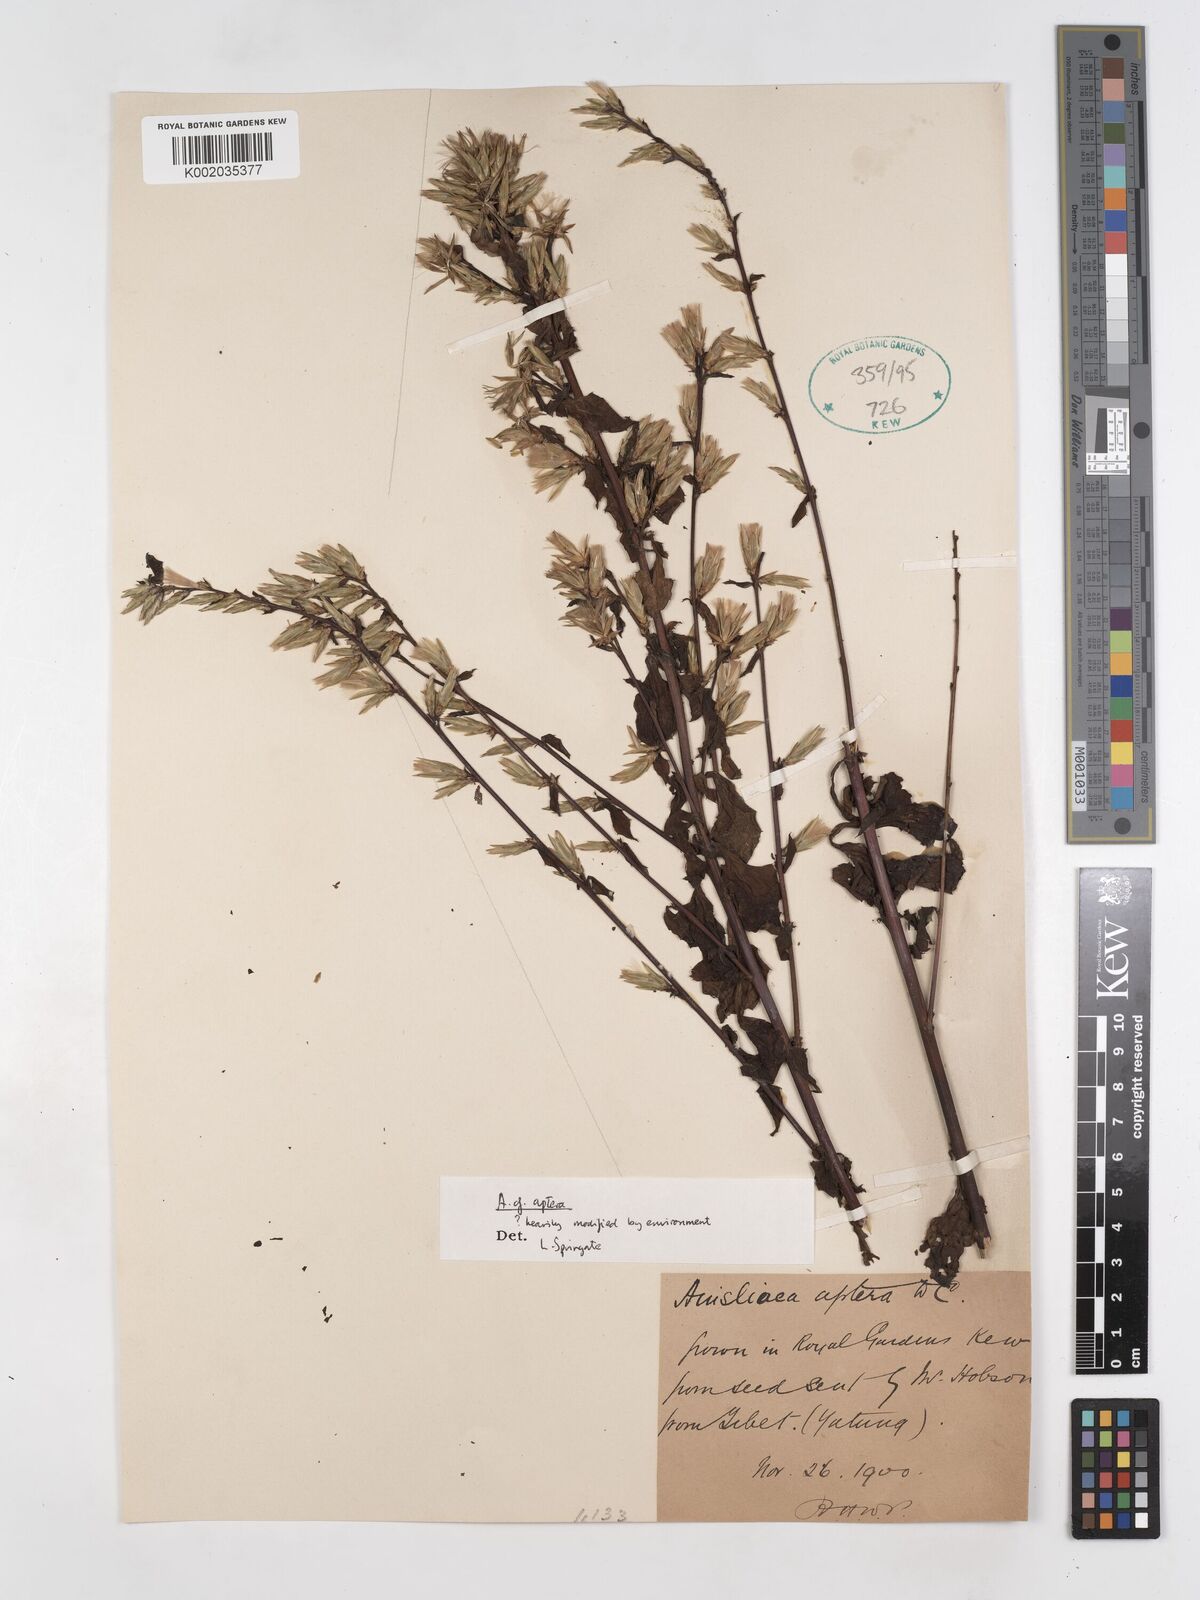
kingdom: Plantae
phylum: Tracheophyta
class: Magnoliopsida
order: Asterales
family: Asteraceae
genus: Ainsliaea
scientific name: Ainsliaea aptera
